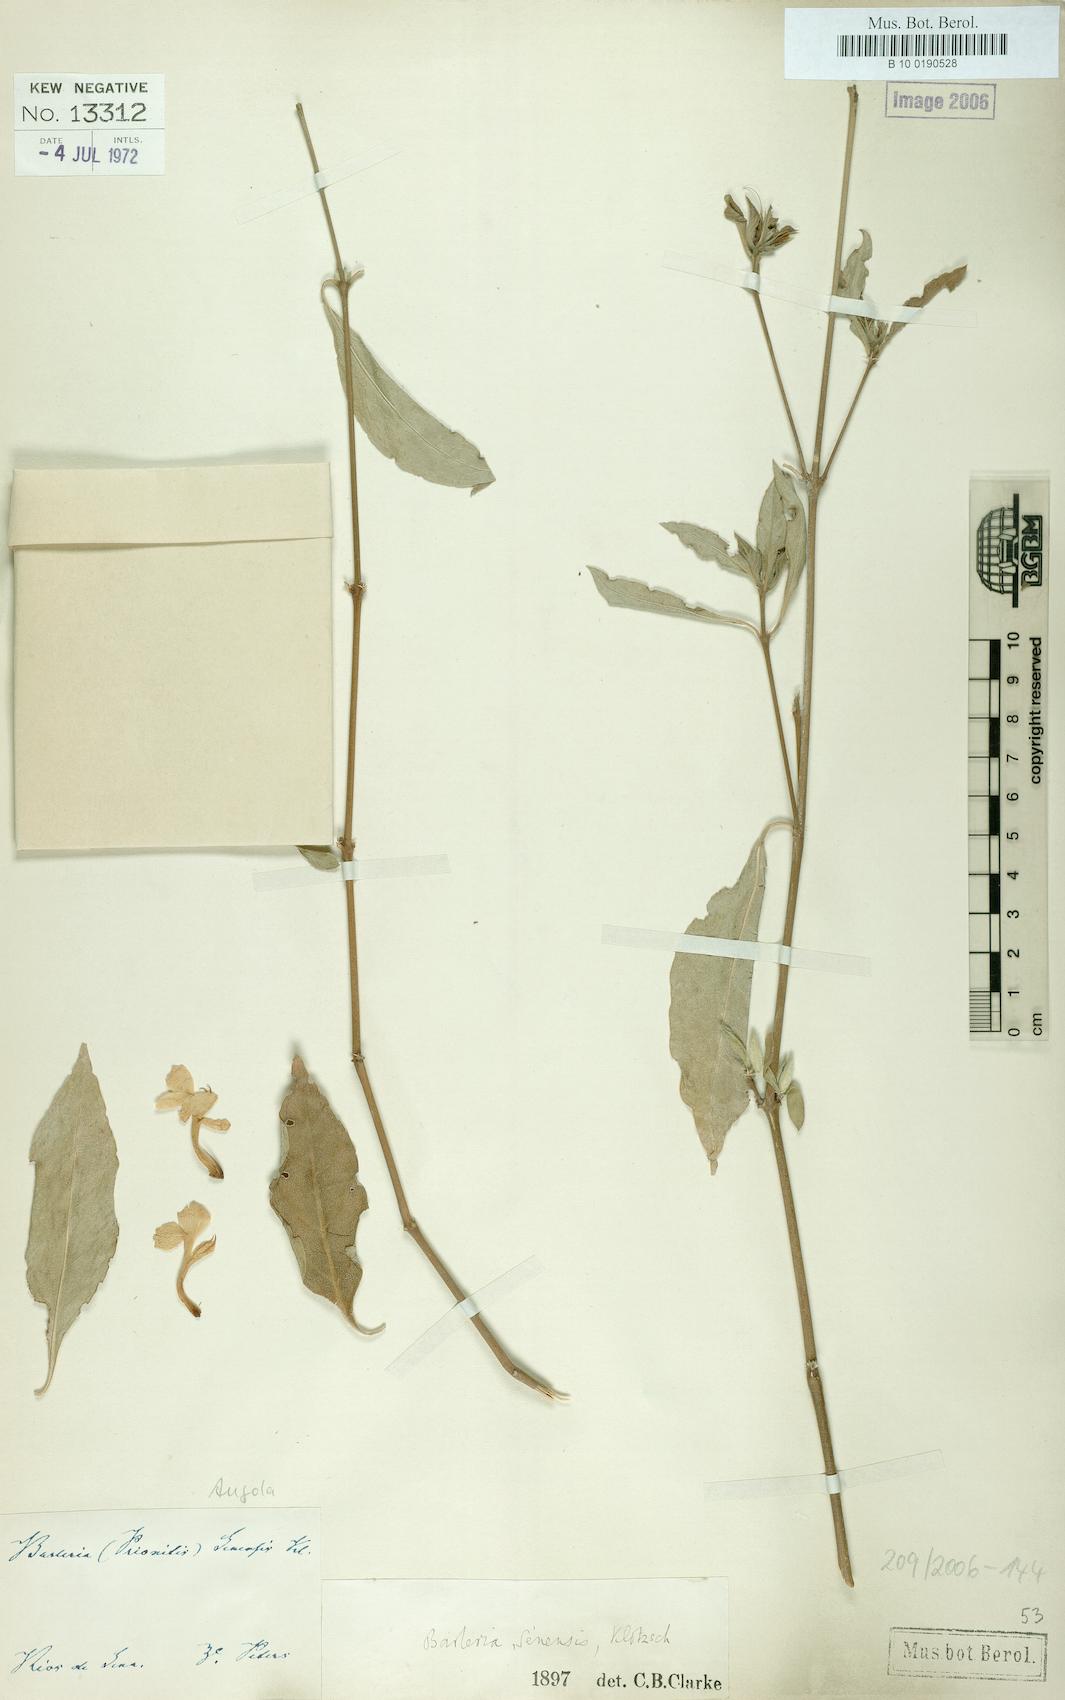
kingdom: Plantae
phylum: Tracheophyta
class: Magnoliopsida
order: Lamiales
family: Acanthaceae
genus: Barleria
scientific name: Barleria senensis
